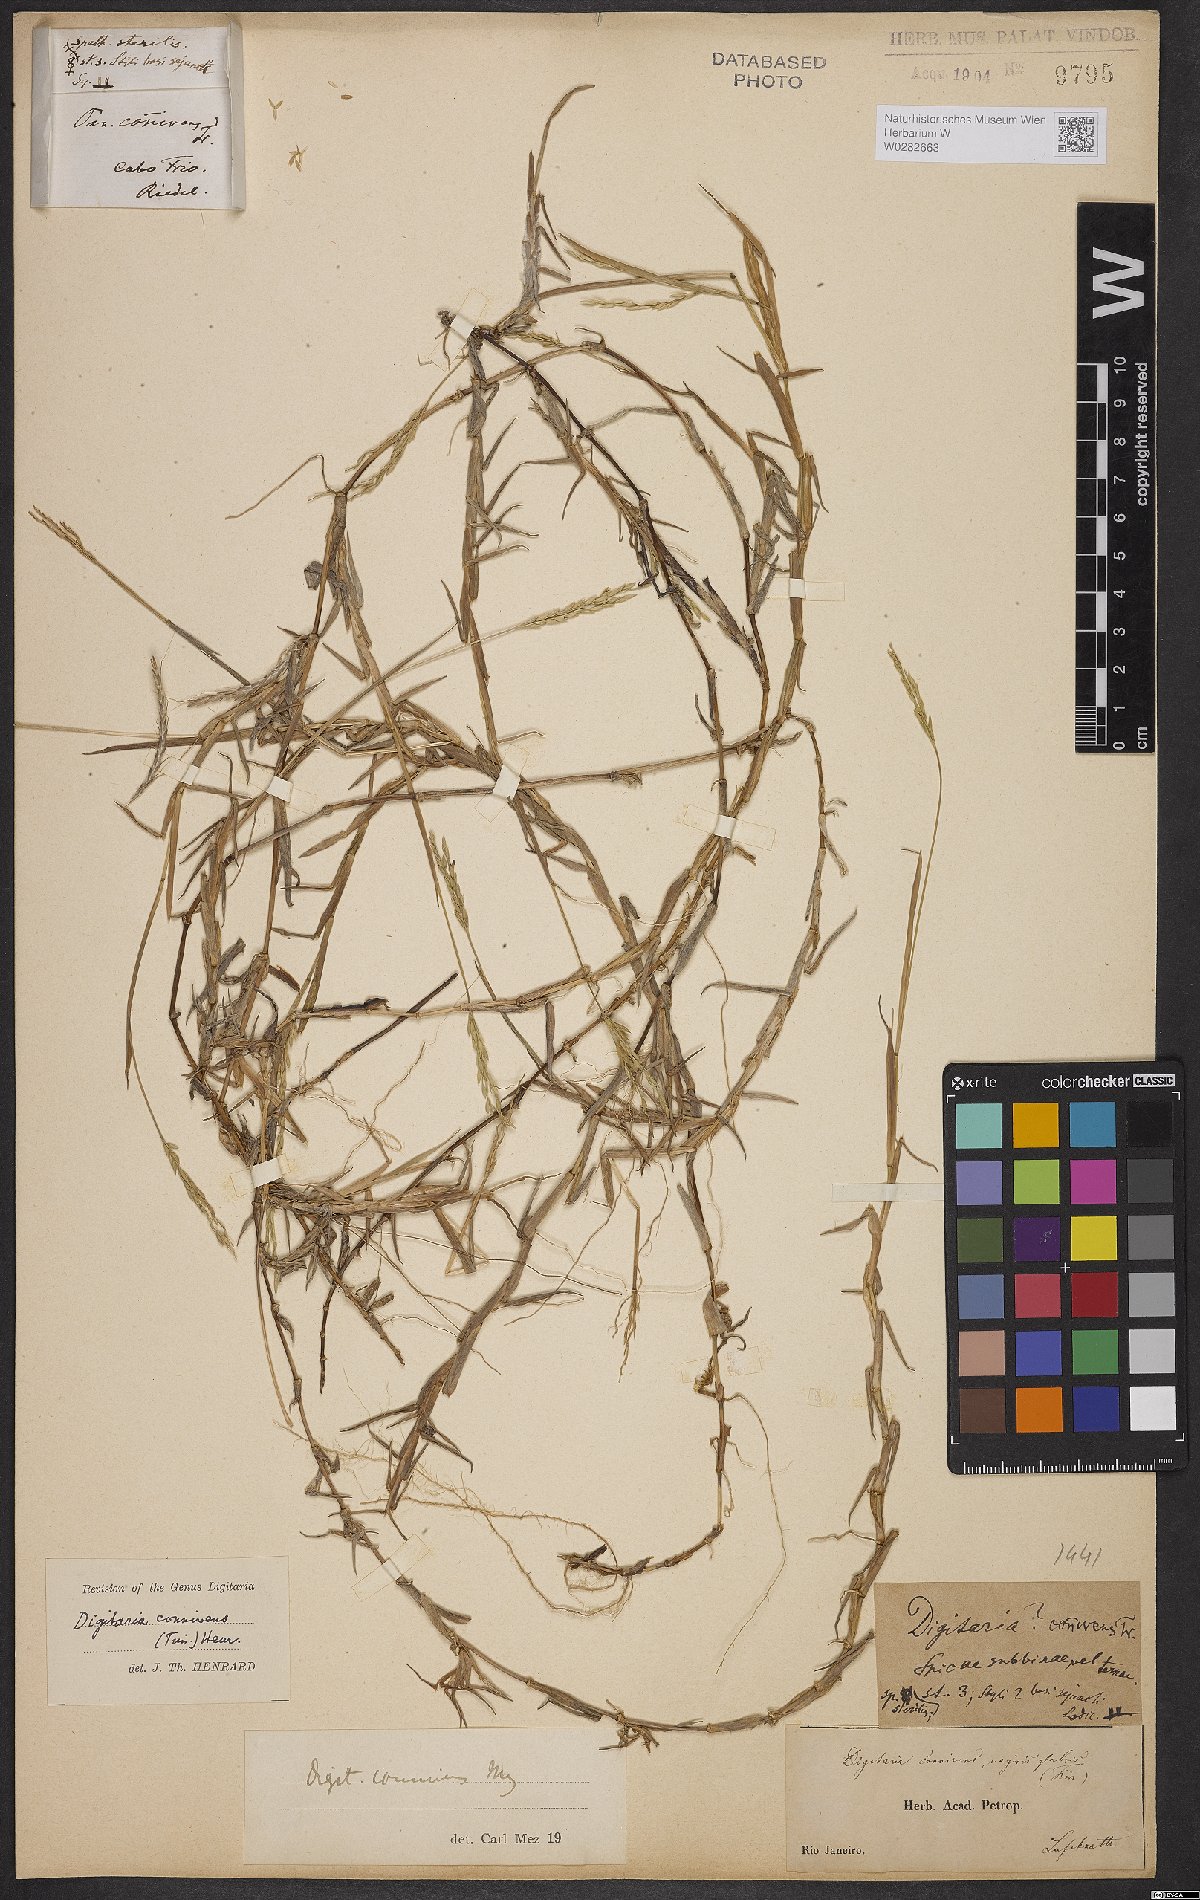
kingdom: Plantae
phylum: Tracheophyta
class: Liliopsida
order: Poales
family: Poaceae
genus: Digitaria
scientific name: Digitaria connivens
